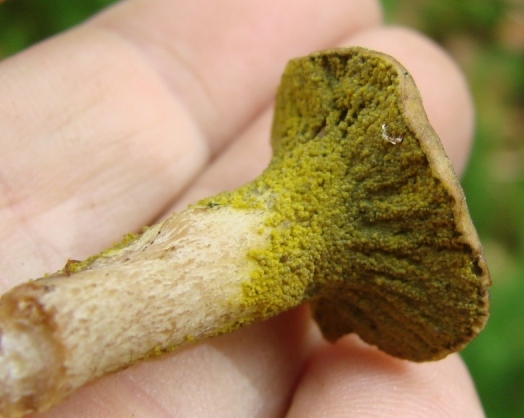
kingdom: Fungi
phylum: Ascomycota
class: Sordariomycetes
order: Hypocreales
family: Hypocreaceae
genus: Hypomyces
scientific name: Hypomyces luteovirens
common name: gulgrøn snylteskorpe
